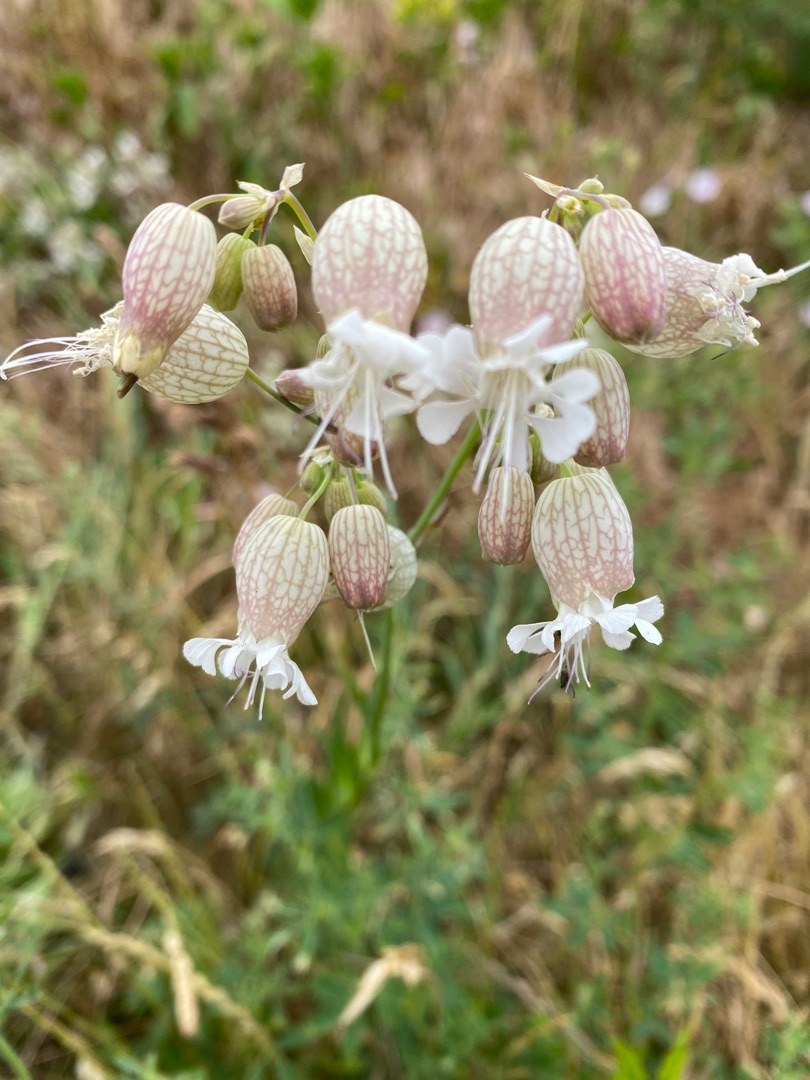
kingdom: Plantae
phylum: Tracheophyta
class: Magnoliopsida
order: Caryophyllales
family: Caryophyllaceae
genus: Silene
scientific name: Silene vulgaris
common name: Blæresmælde
